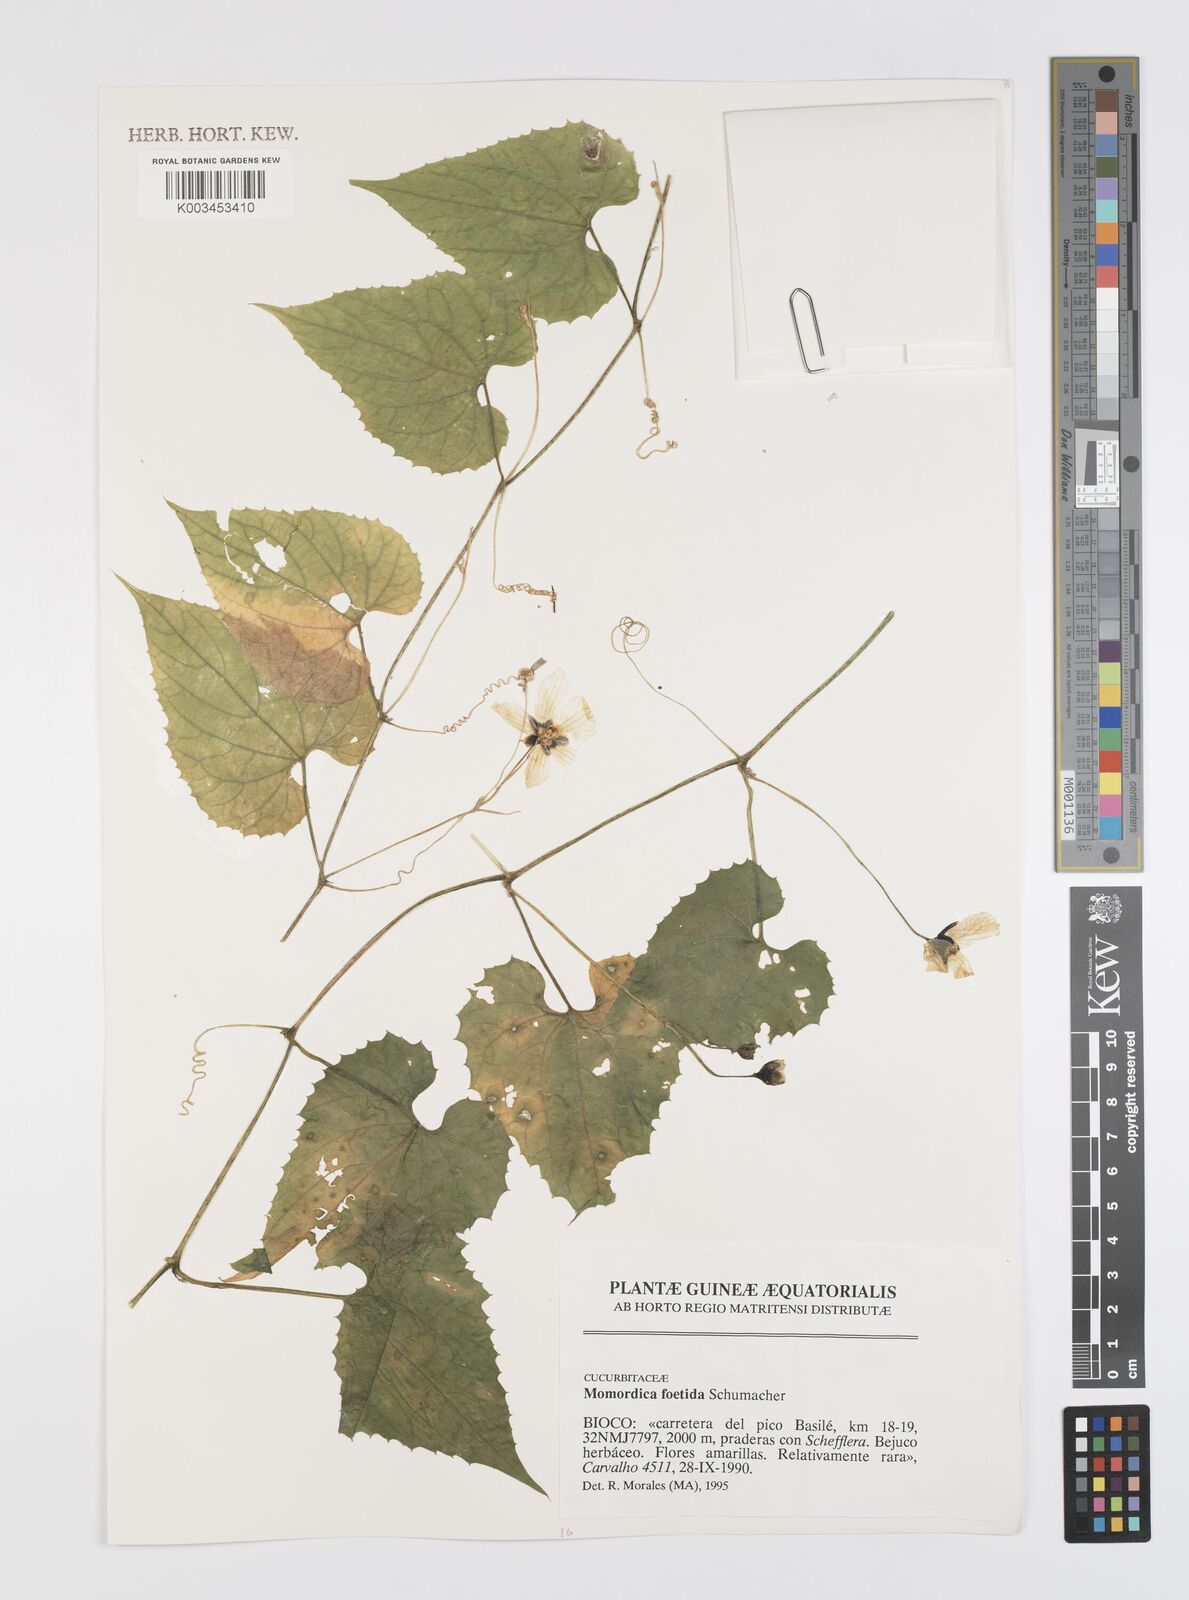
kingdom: Plantae
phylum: Tracheophyta
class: Magnoliopsida
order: Cucurbitales
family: Cucurbitaceae
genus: Momordica
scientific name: Momordica foetida
